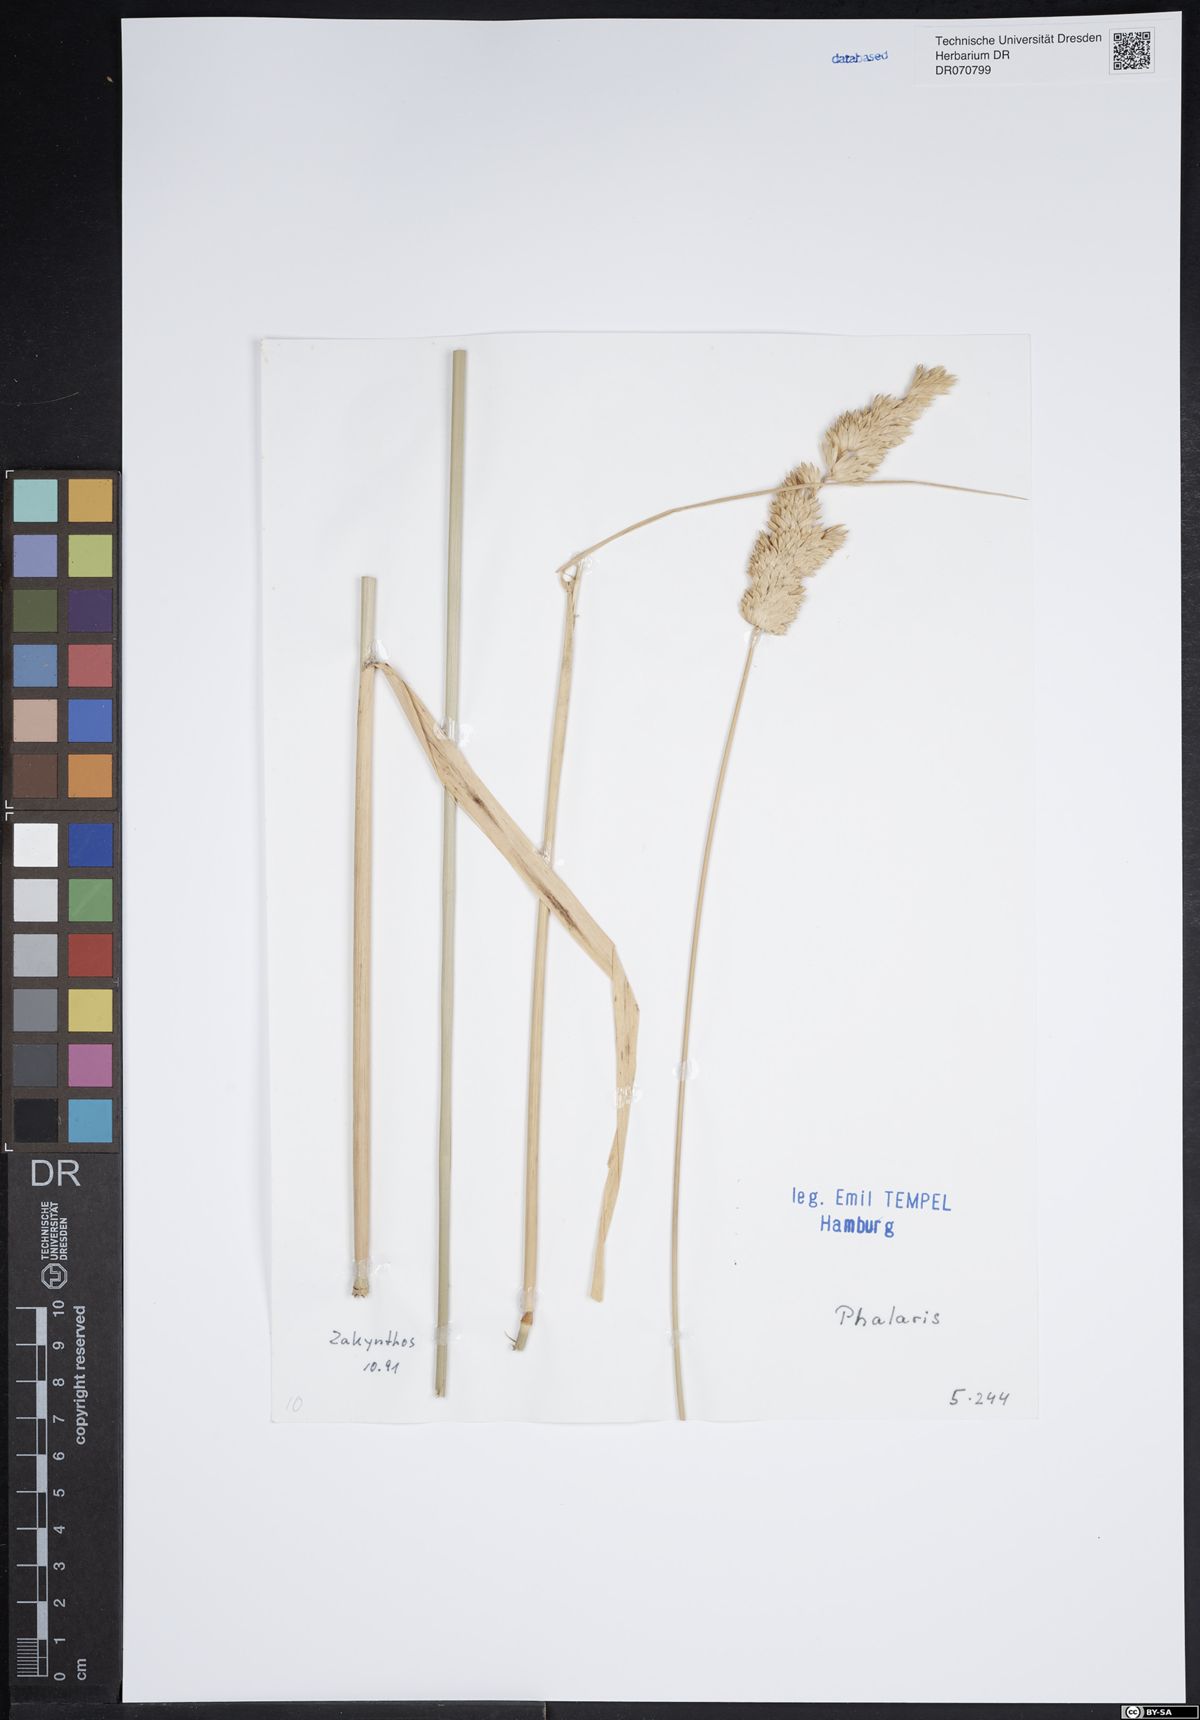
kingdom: Plantae
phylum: Tracheophyta
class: Liliopsida
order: Poales
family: Poaceae
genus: Phalaris
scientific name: Phalaris
